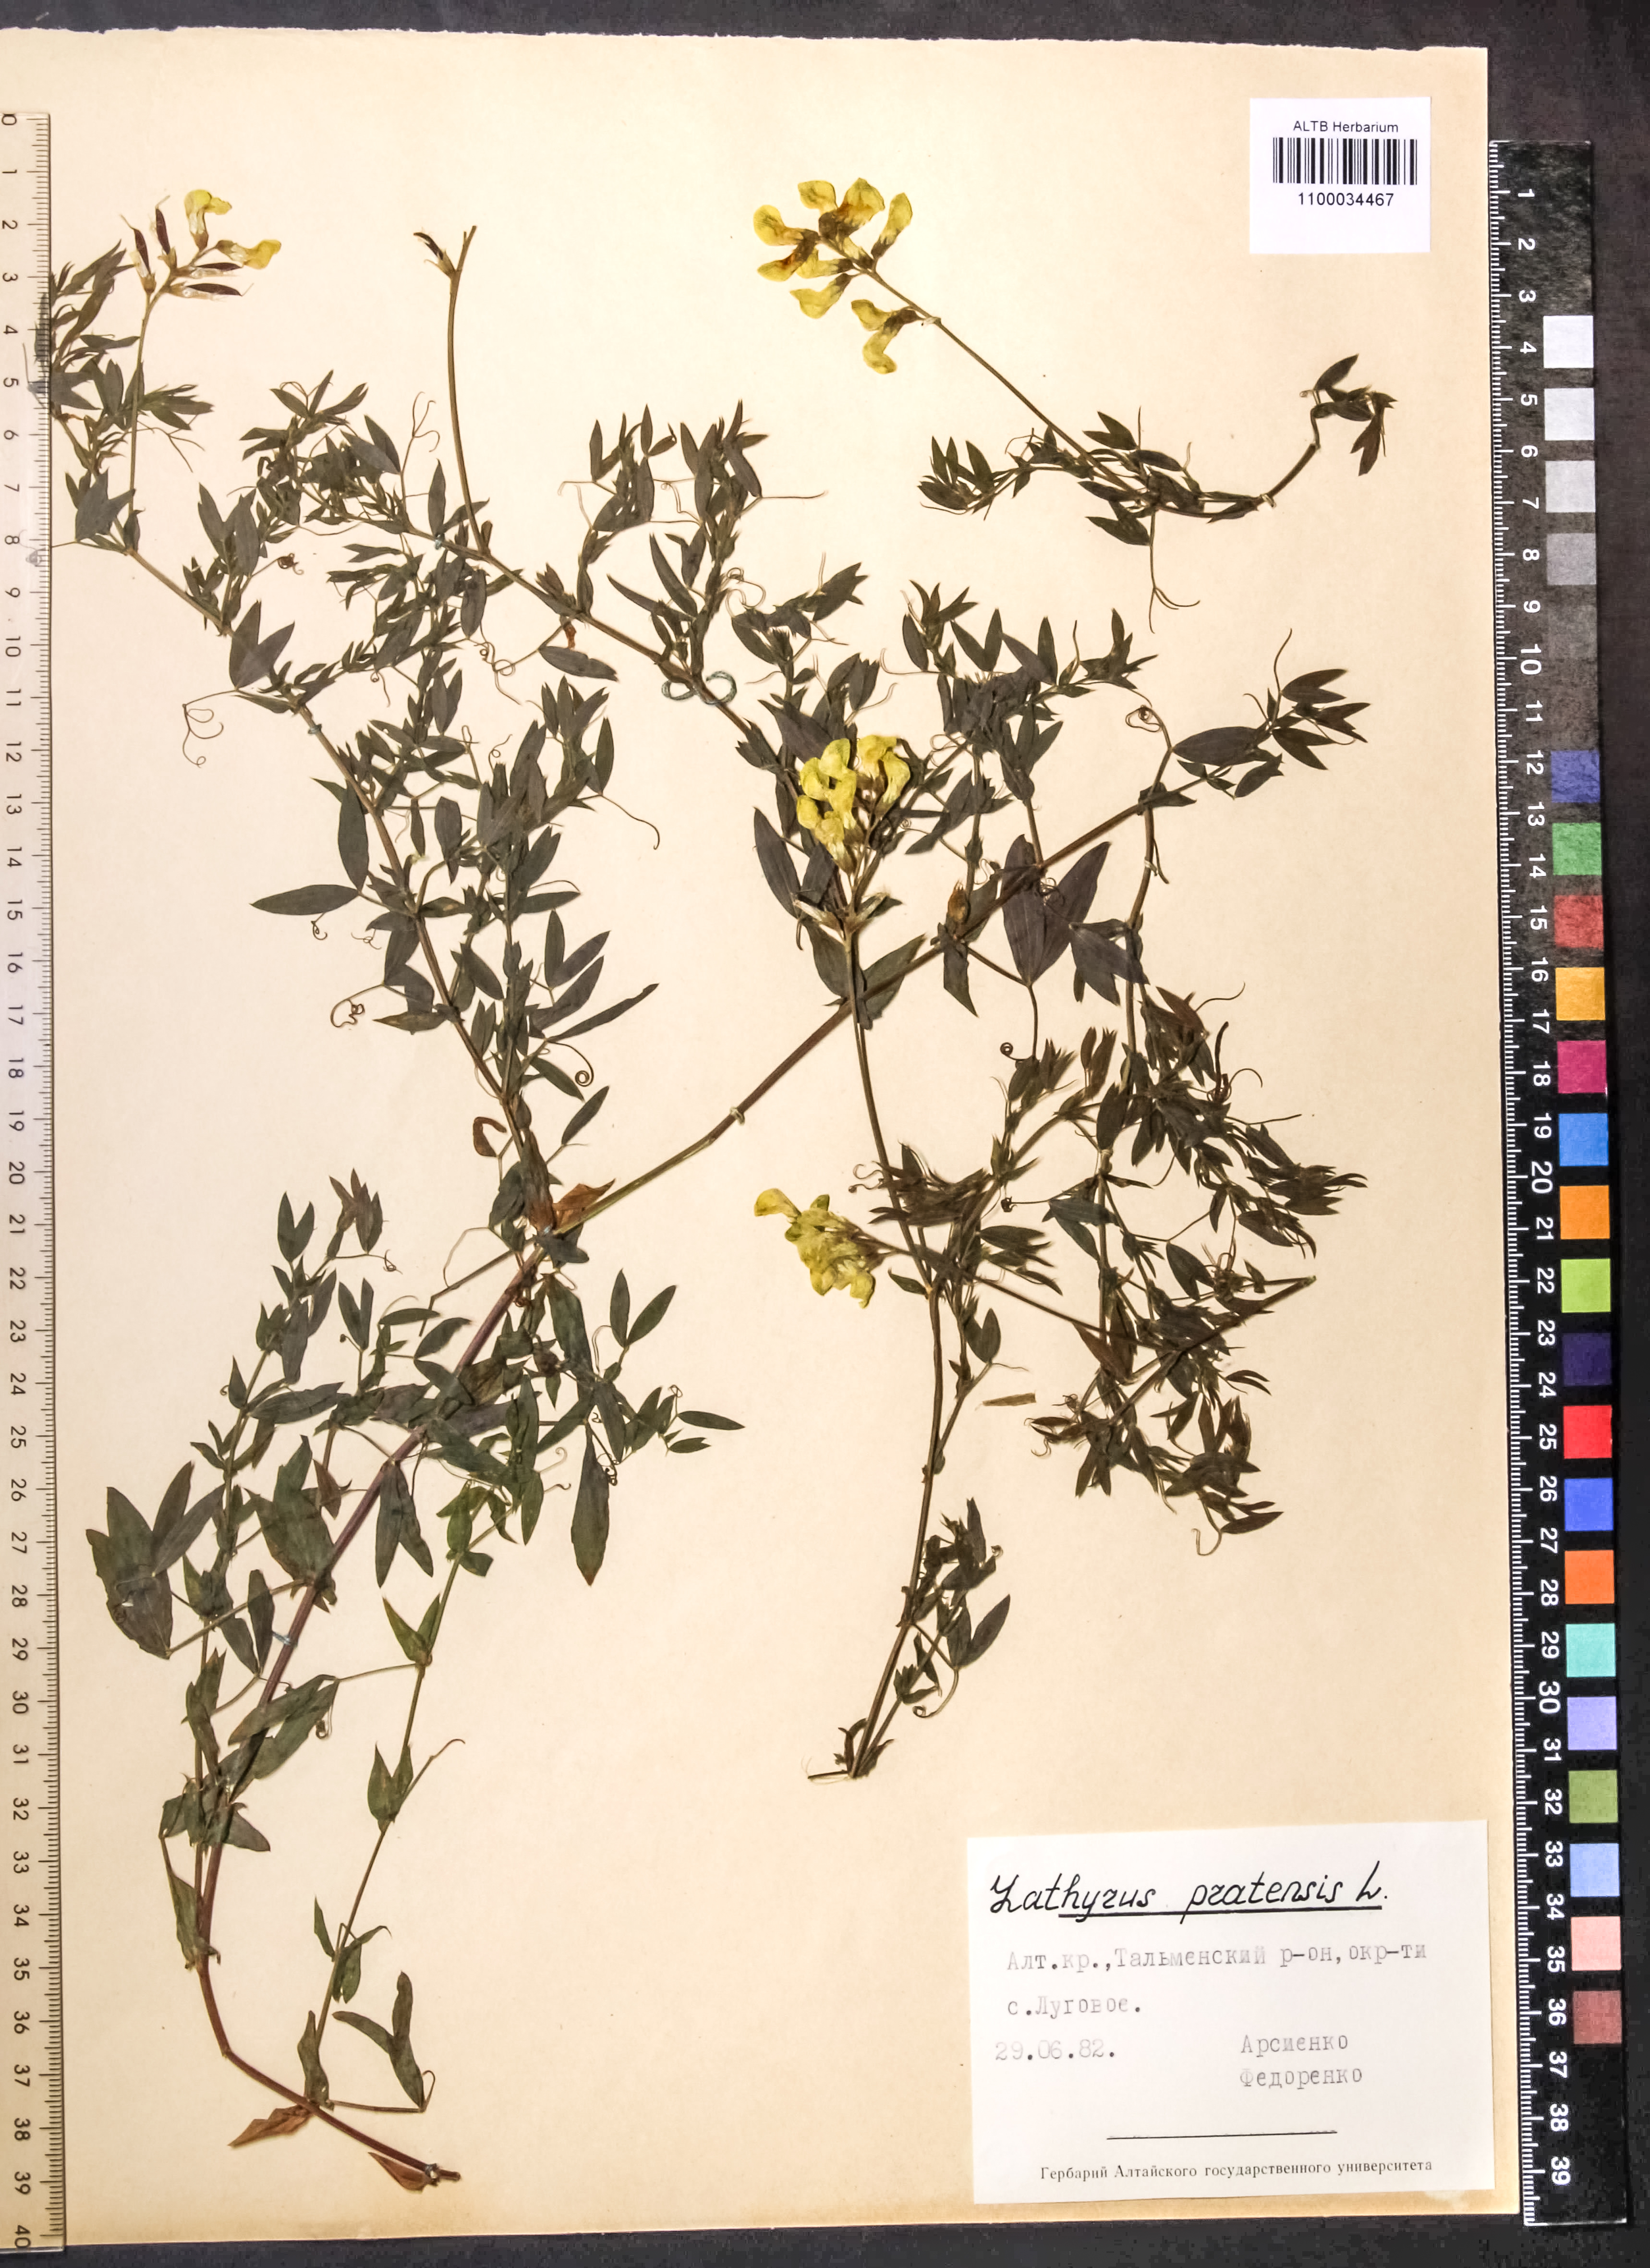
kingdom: Plantae
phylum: Tracheophyta
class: Magnoliopsida
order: Fabales
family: Fabaceae
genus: Lathyrus
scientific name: Lathyrus pratensis
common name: Meadow vetchling
